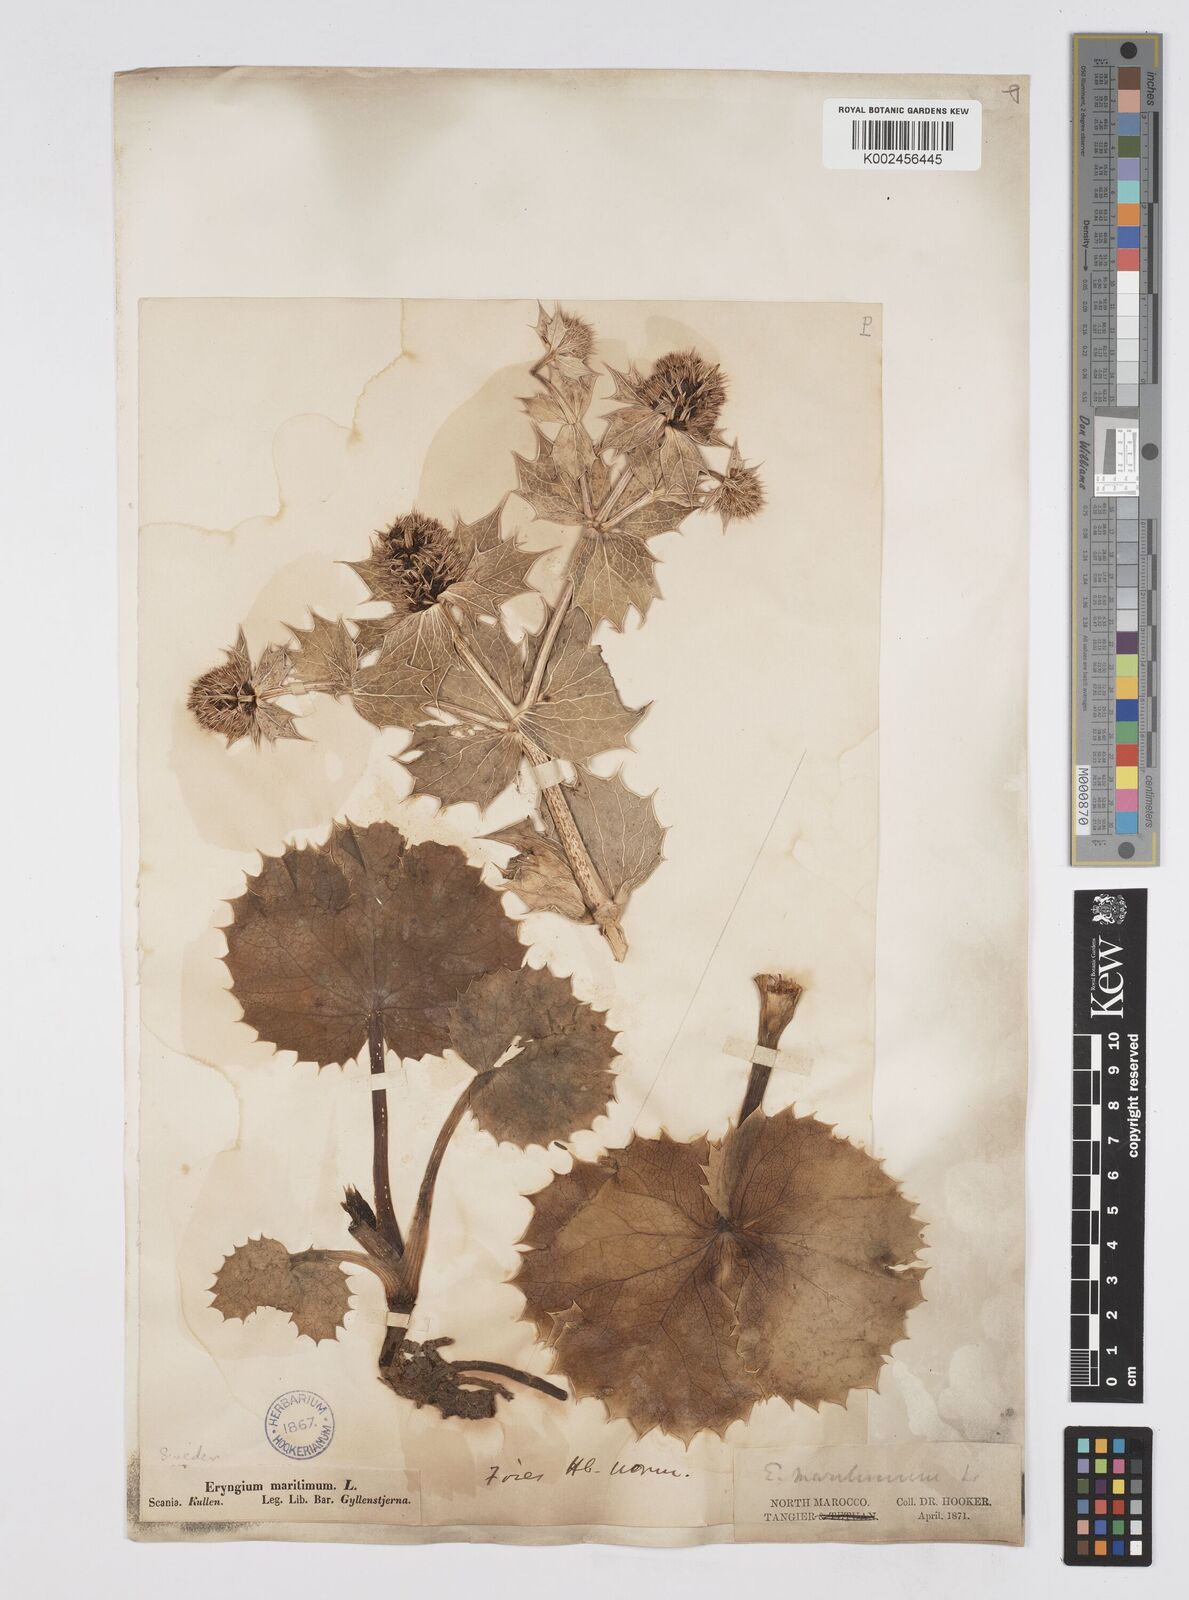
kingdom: Plantae
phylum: Tracheophyta
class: Magnoliopsida
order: Apiales
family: Apiaceae
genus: Eryngium
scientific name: Eryngium maritimum
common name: Sea-holly
